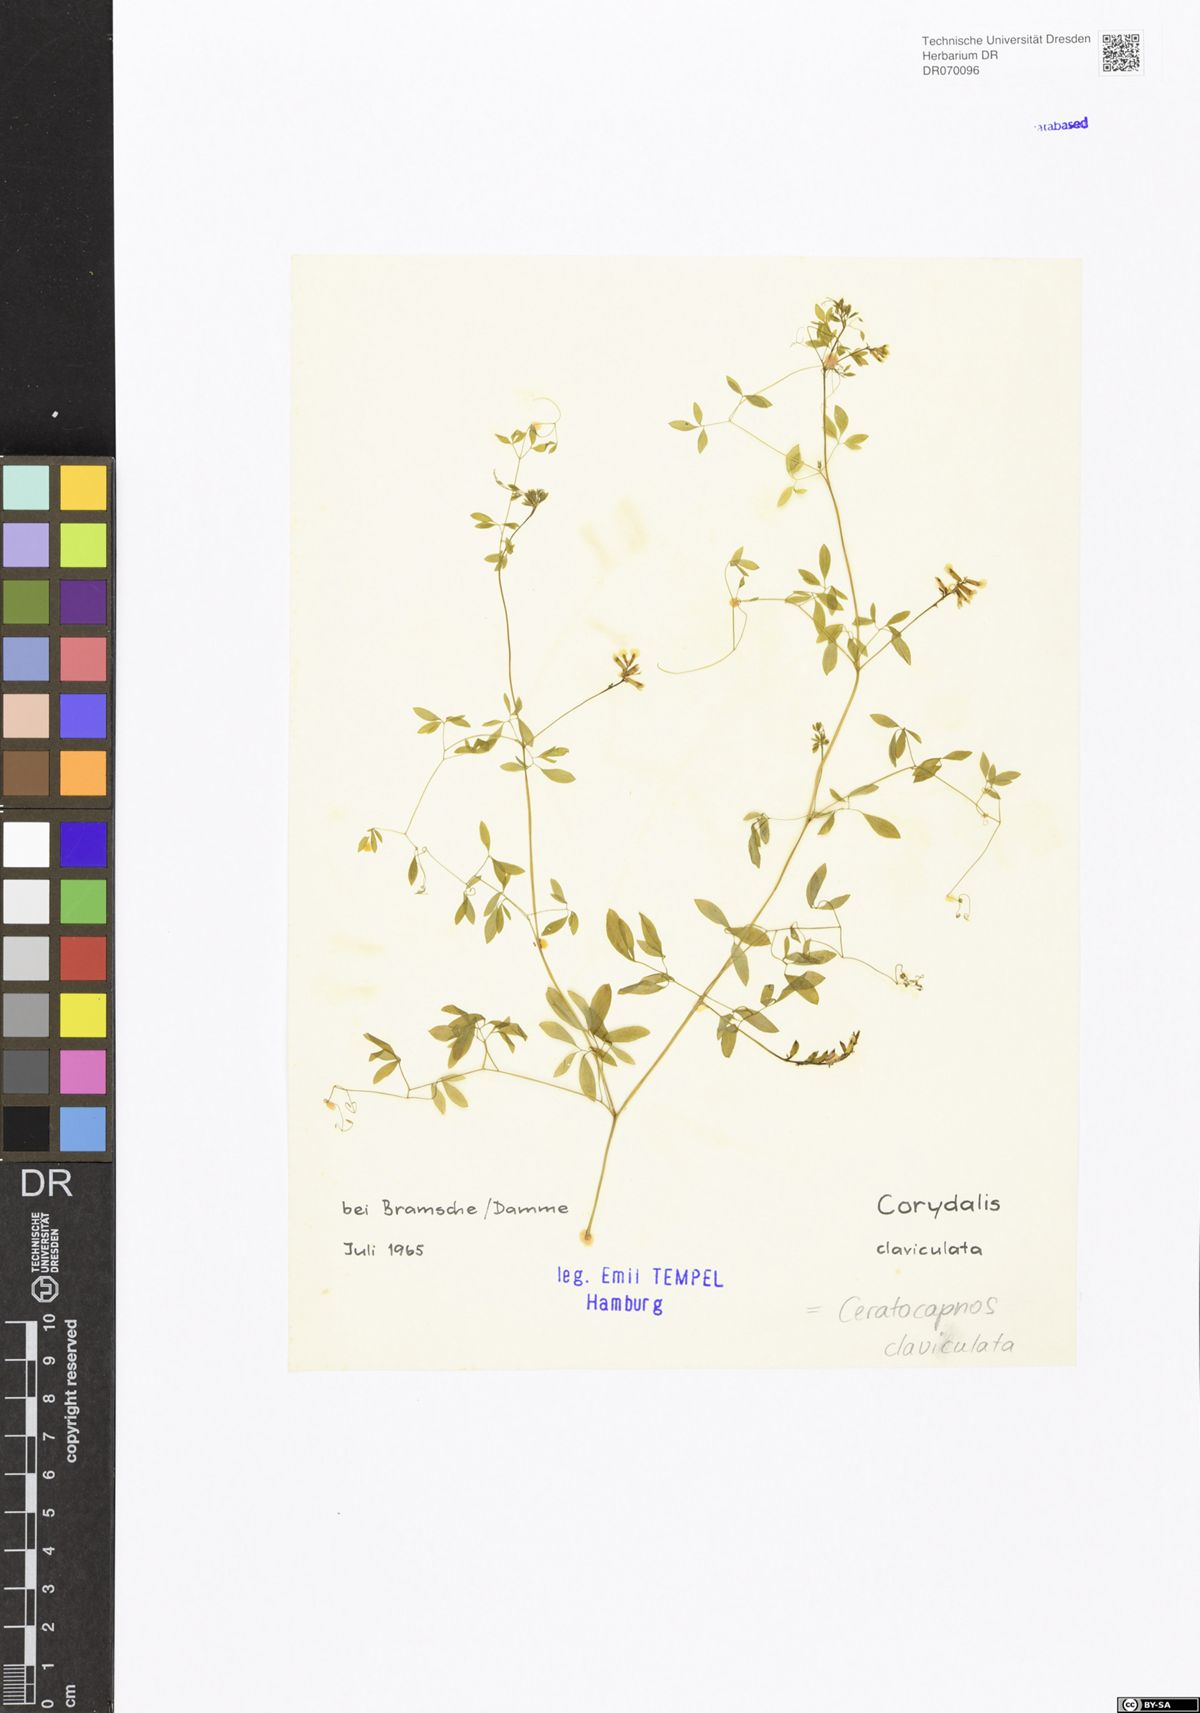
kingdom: Plantae
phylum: Tracheophyta
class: Magnoliopsida
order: Ranunculales
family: Papaveraceae
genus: Ceratocapnos
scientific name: Ceratocapnos claviculata
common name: Climbing corydalis
